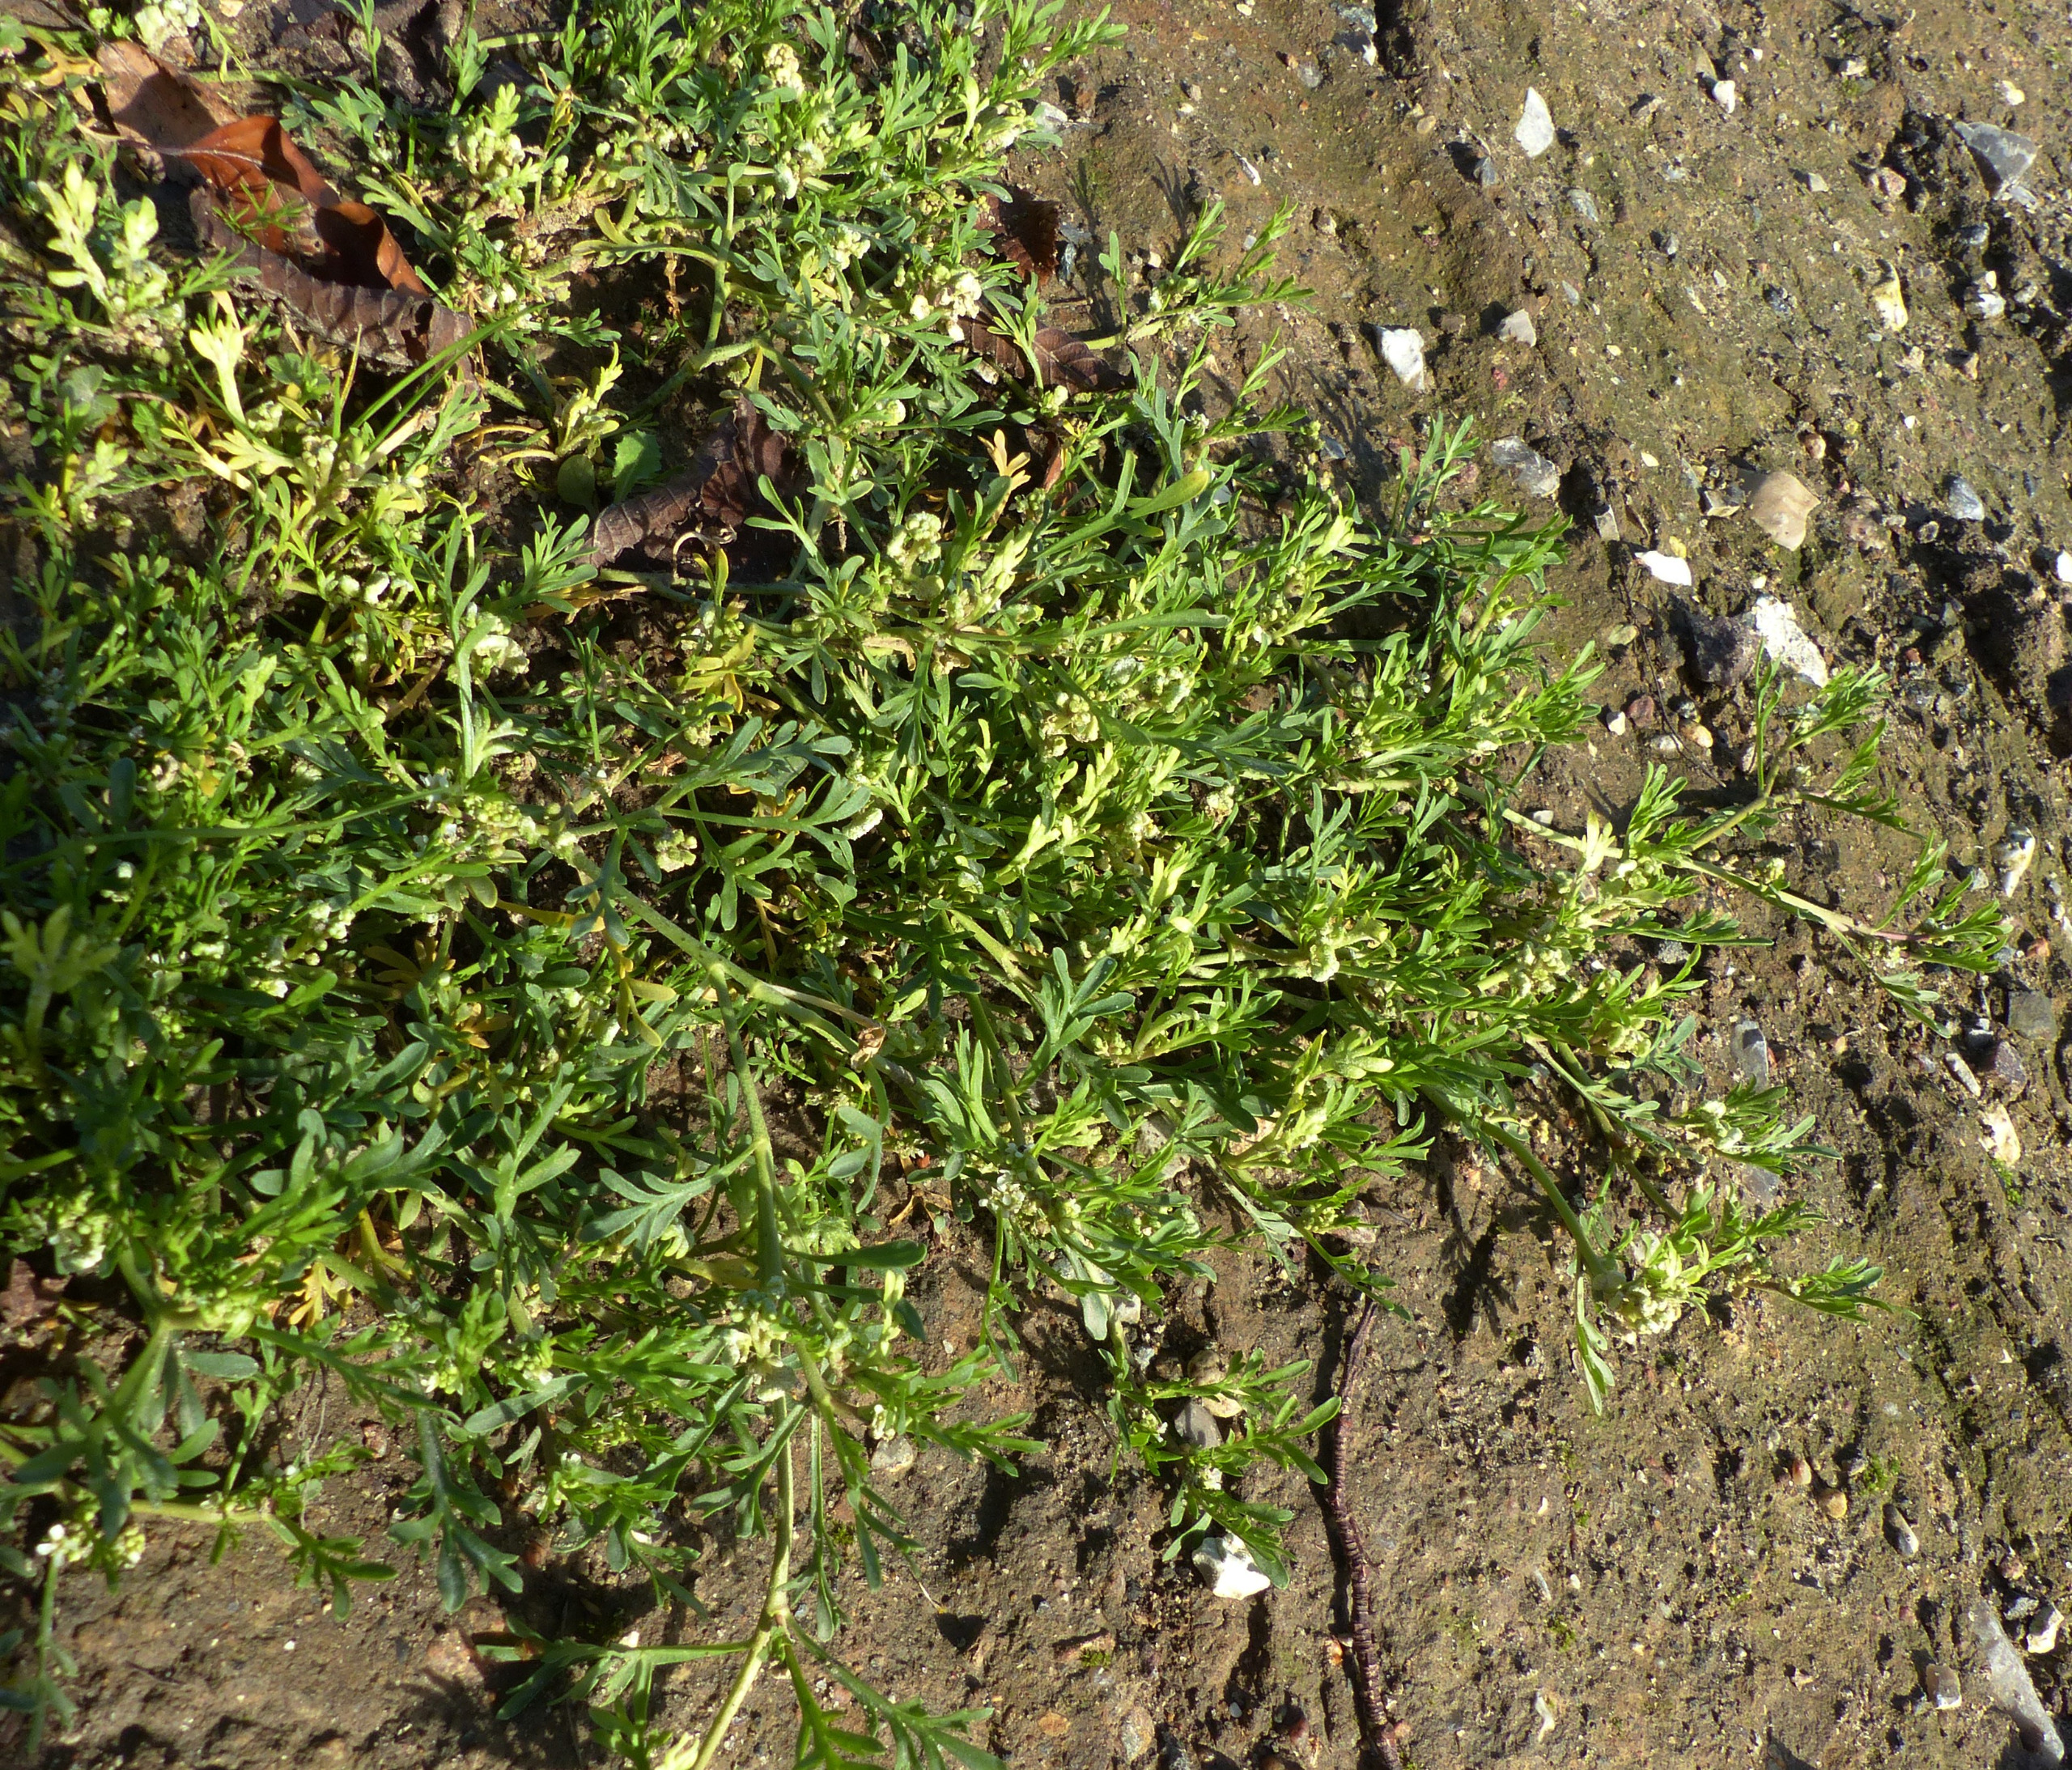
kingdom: Plantae
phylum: Tracheophyta
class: Magnoliopsida
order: Brassicales
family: Brassicaceae
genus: Lepidium
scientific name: Lepidium coronopus
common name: Ravnefod
